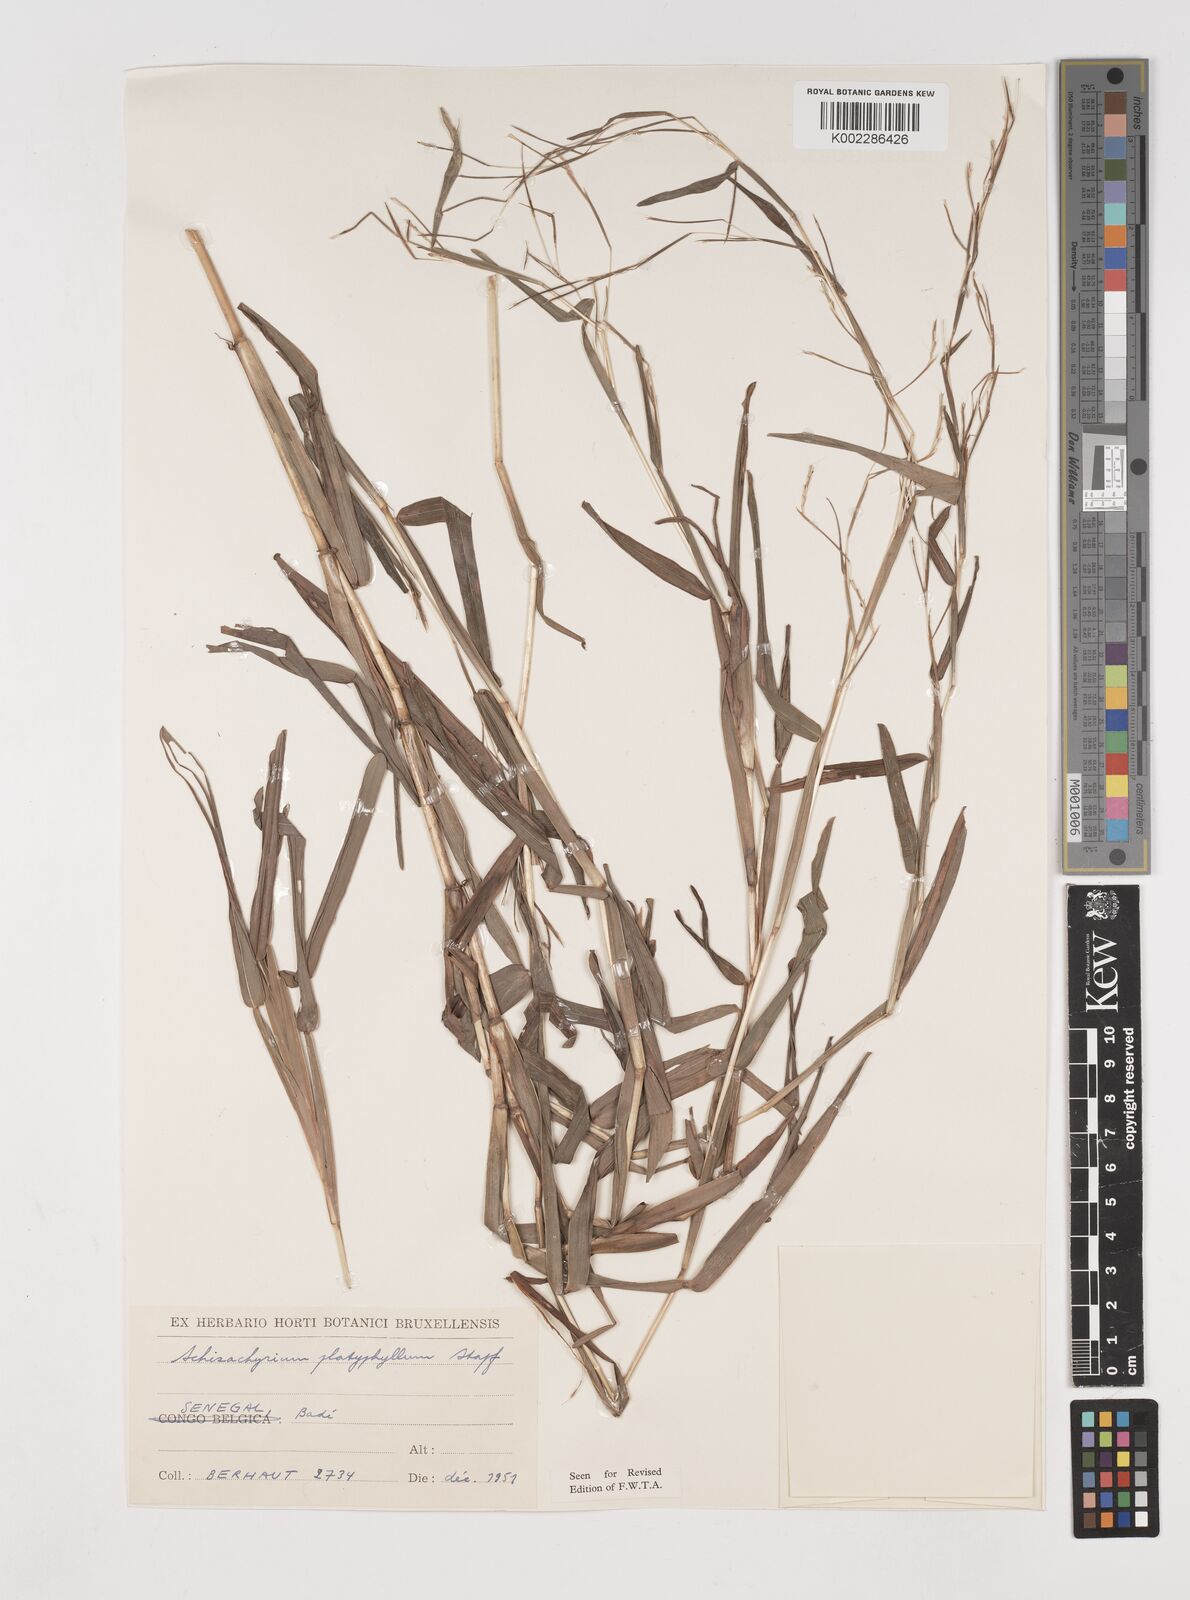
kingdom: Plantae
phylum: Tracheophyta
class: Liliopsida
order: Poales
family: Poaceae
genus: Schizachyrium
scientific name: Schizachyrium platyphyllum
